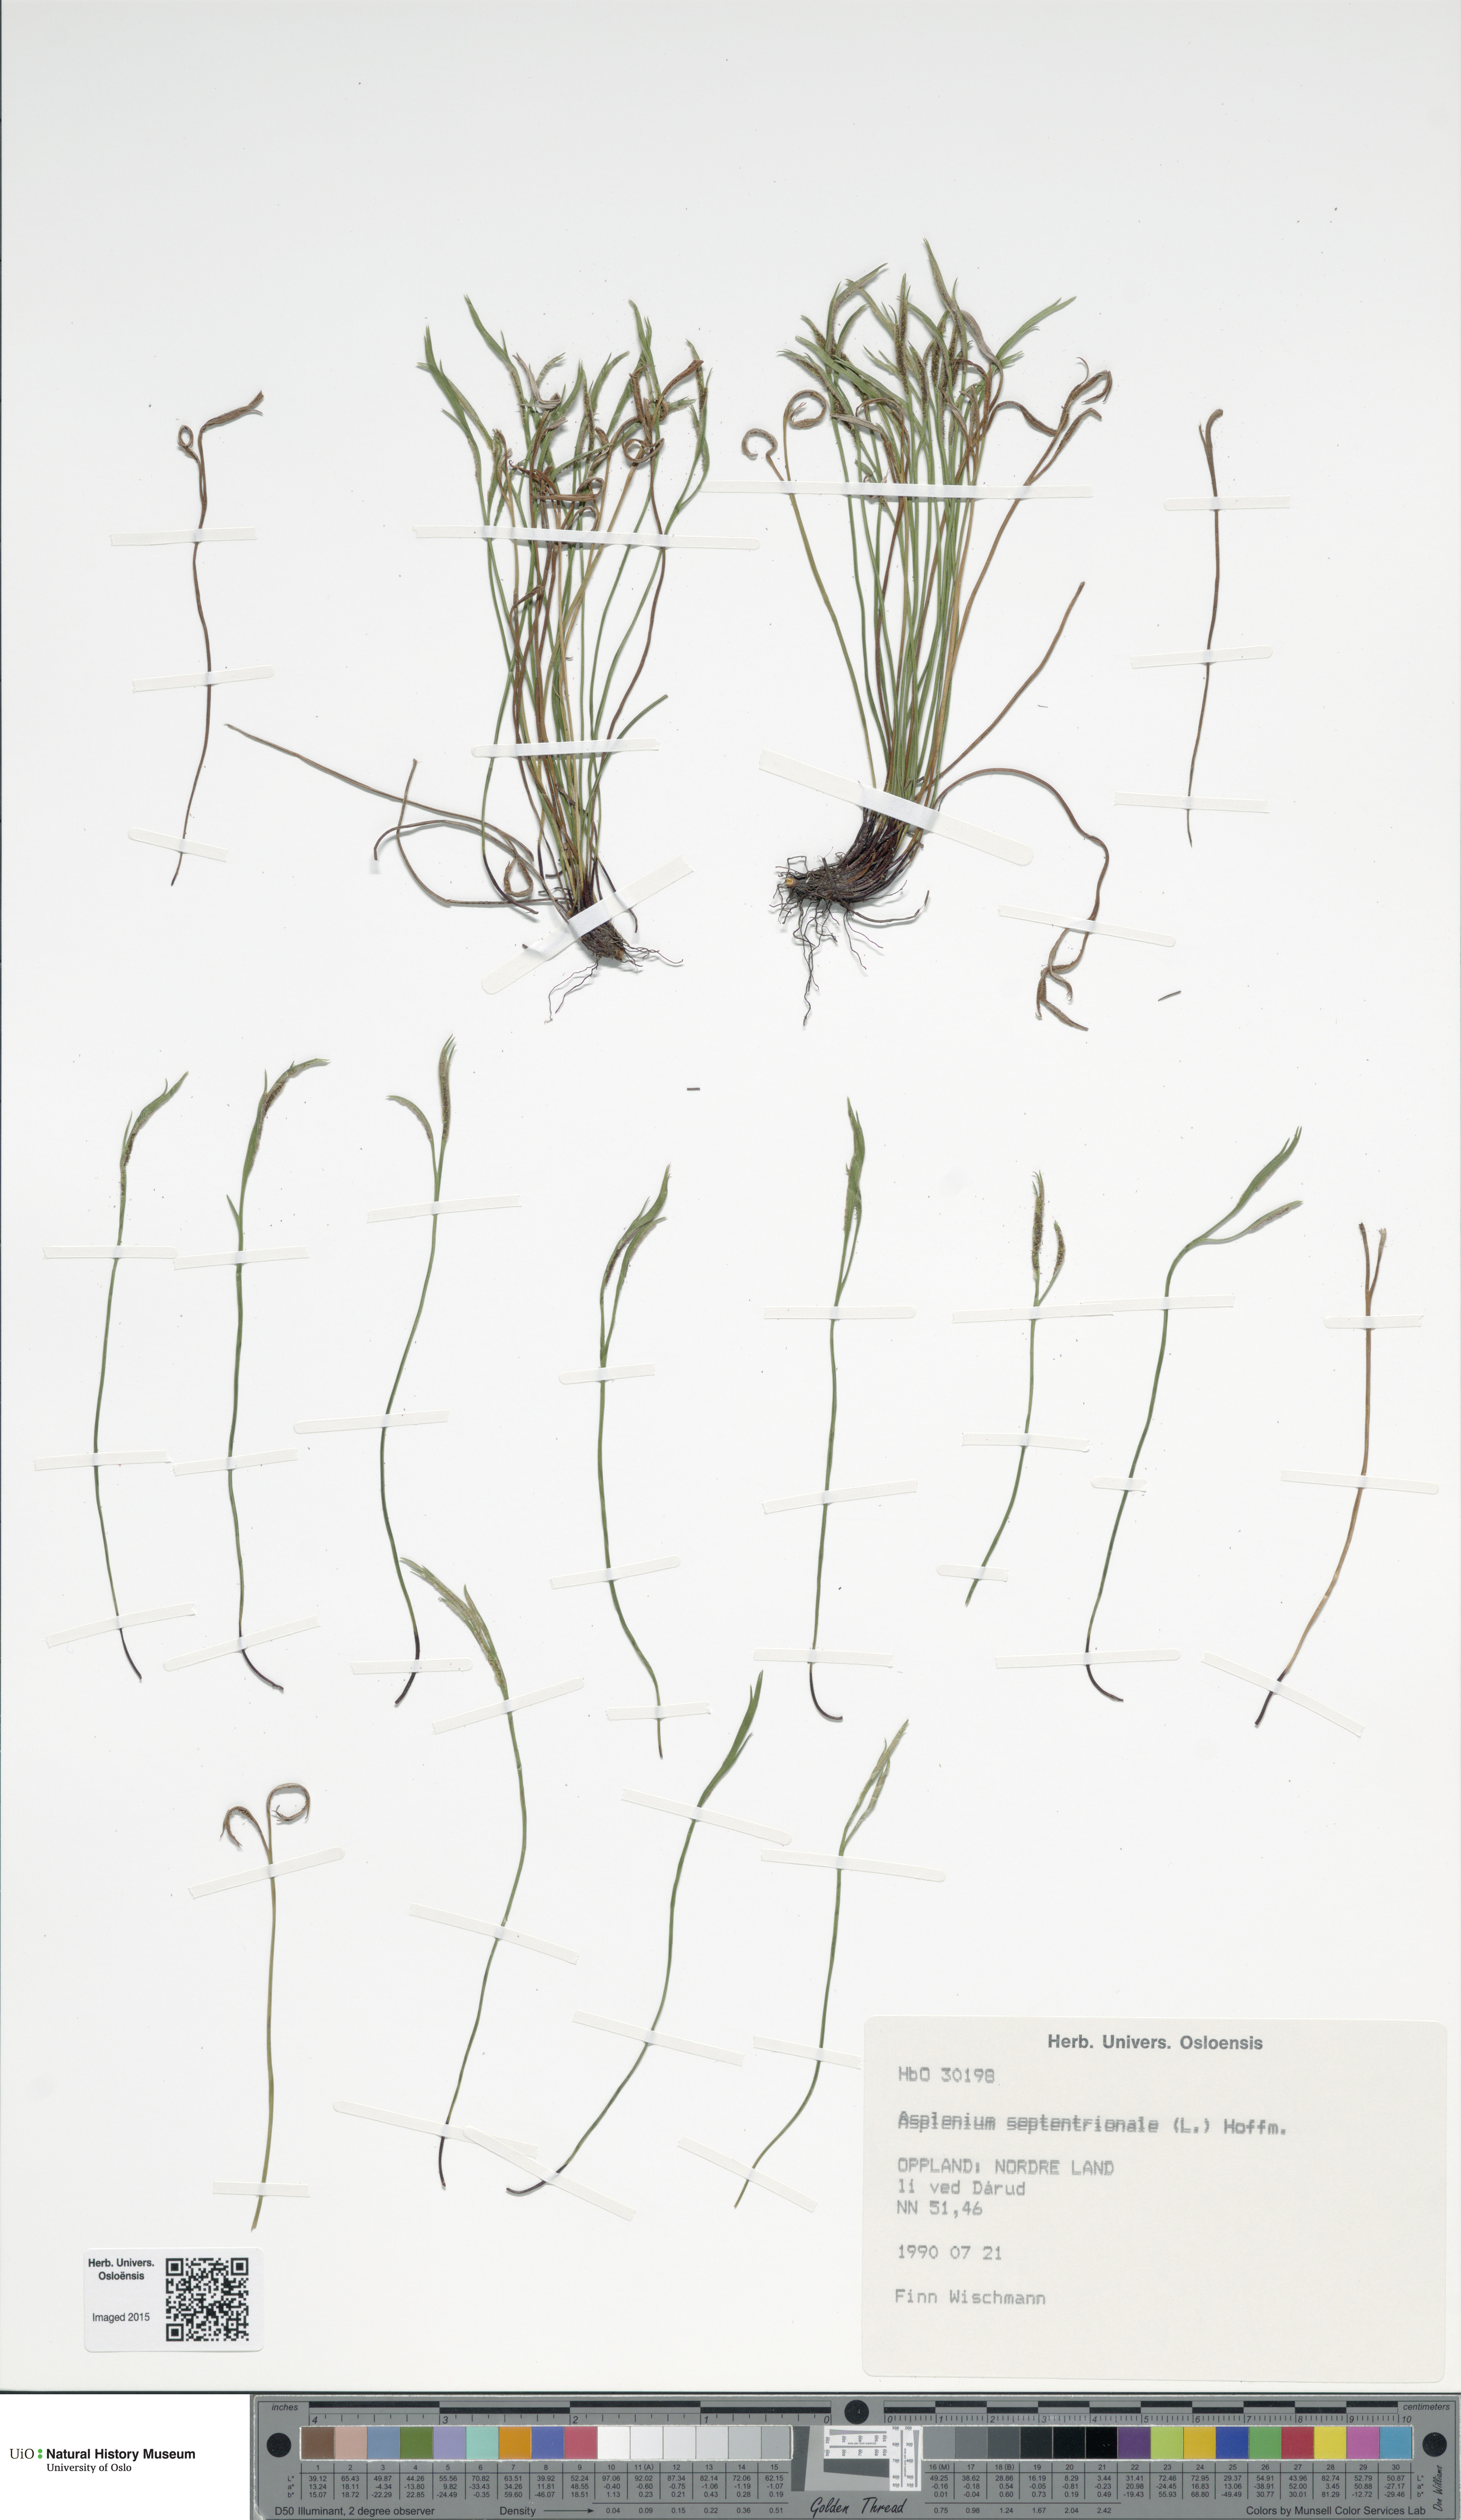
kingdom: Plantae
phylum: Tracheophyta
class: Polypodiopsida
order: Polypodiales
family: Aspleniaceae
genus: Asplenium
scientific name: Asplenium septentrionale
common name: Forked spleenwort
